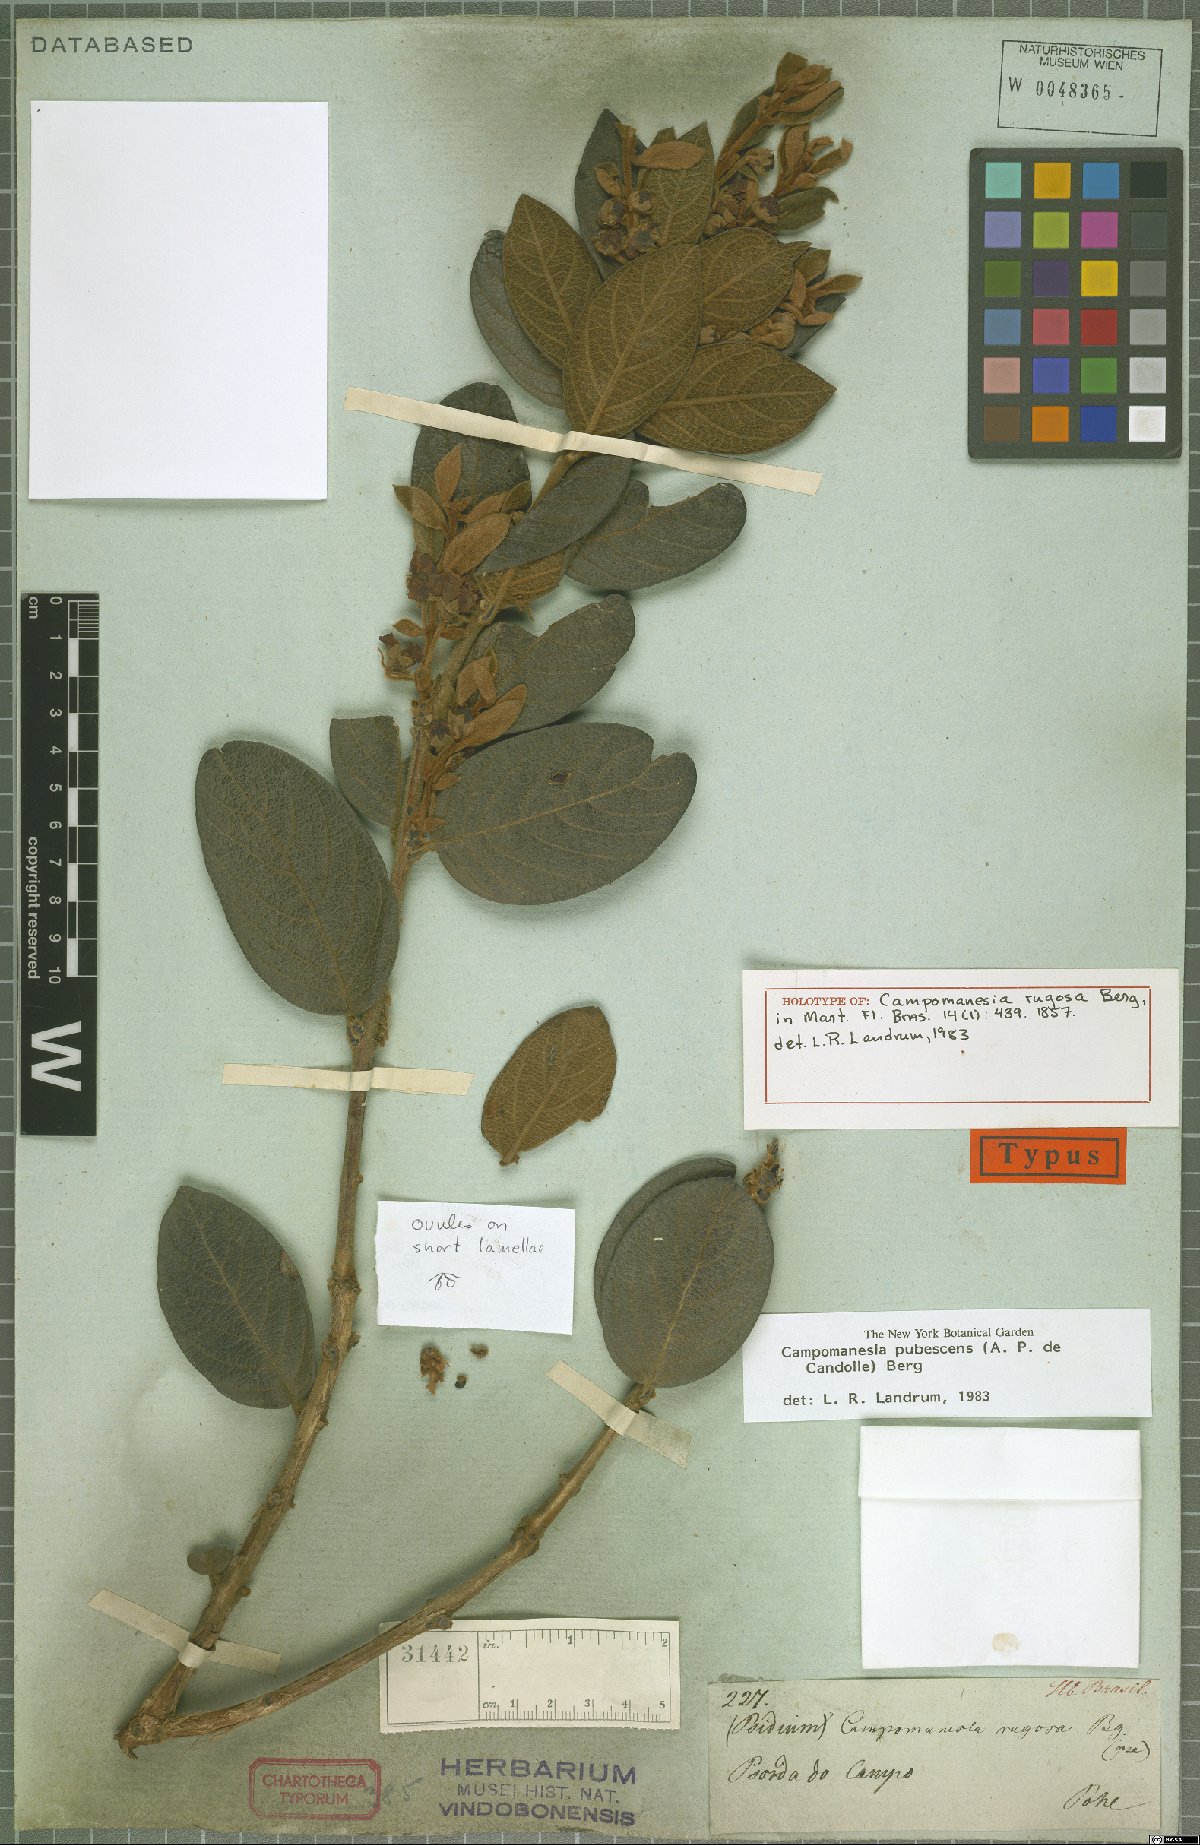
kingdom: Plantae
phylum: Tracheophyta
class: Magnoliopsida
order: Myrtales
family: Myrtaceae
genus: Campomanesia
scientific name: Campomanesia pubescens
